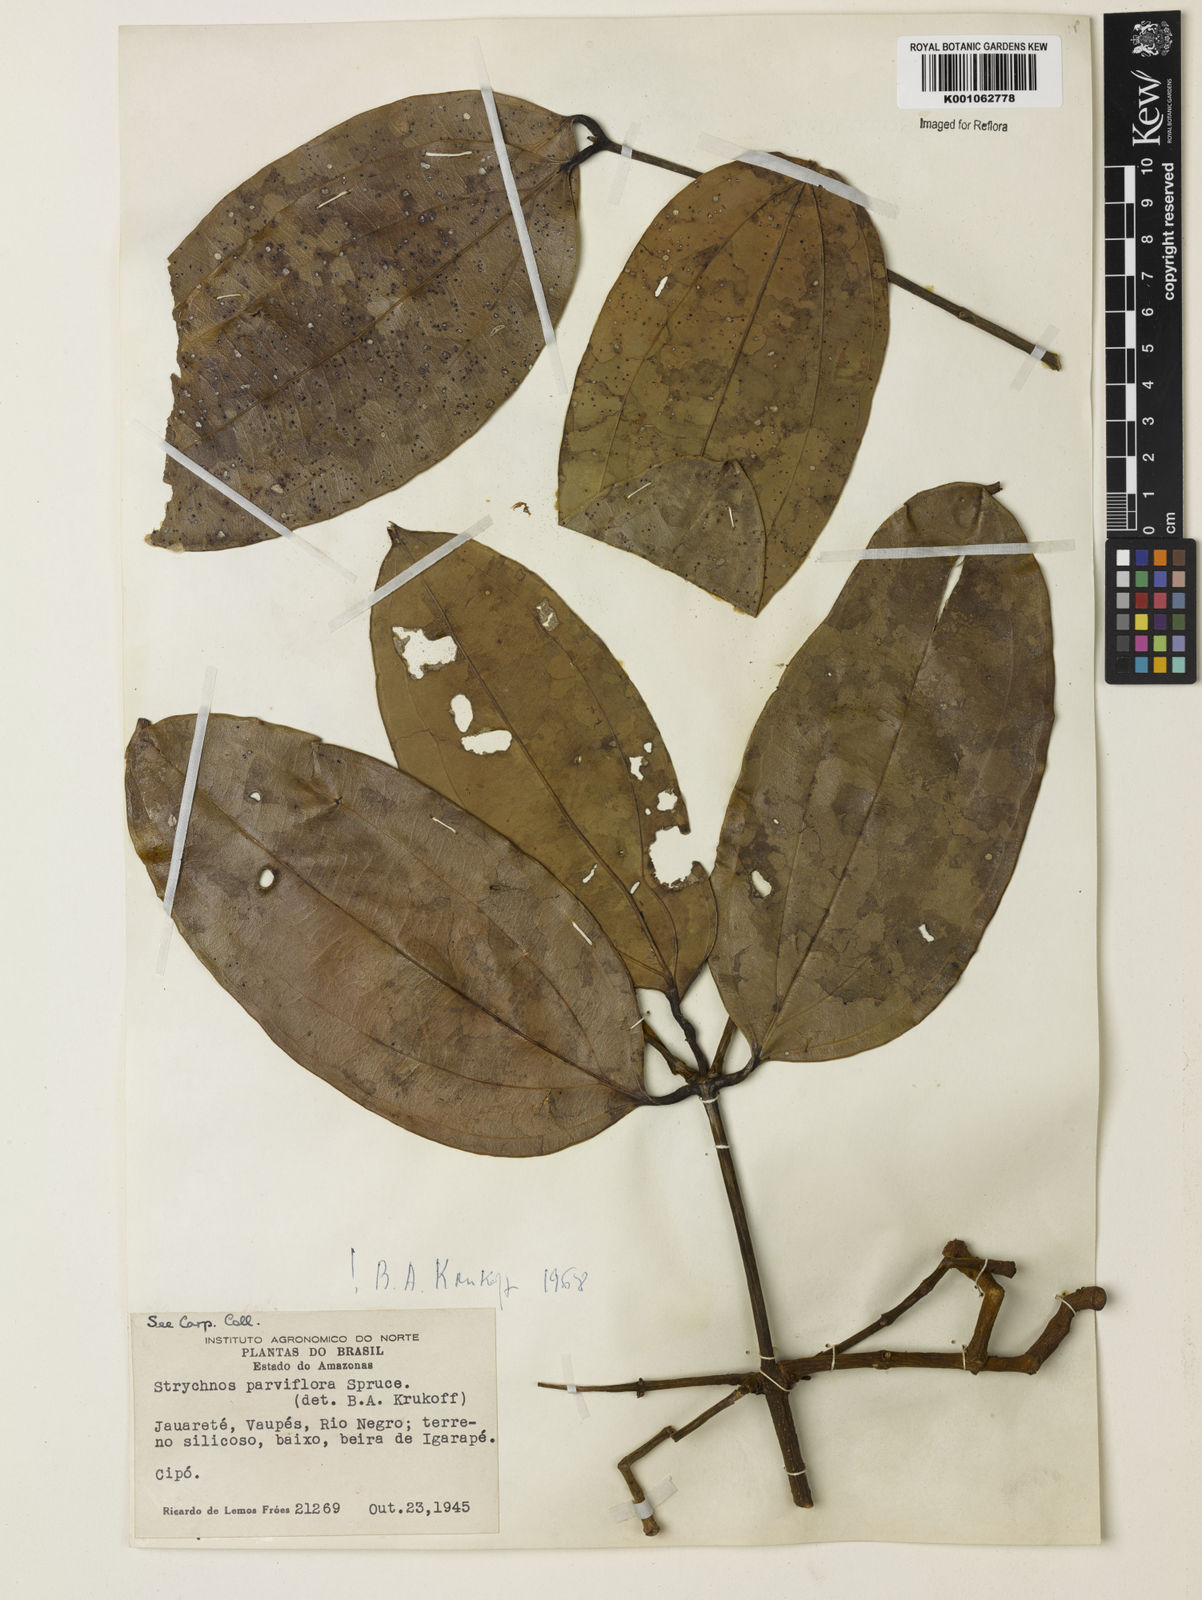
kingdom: Plantae
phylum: Tracheophyta
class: Magnoliopsida
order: Gentianales
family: Loganiaceae
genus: Strychnos
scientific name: Strychnos parviflora
